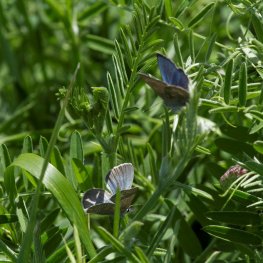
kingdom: Animalia
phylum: Arthropoda
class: Insecta
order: Lepidoptera
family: Lycaenidae
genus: Glaucopsyche
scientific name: Glaucopsyche lygdamus
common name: Silvery Blue
